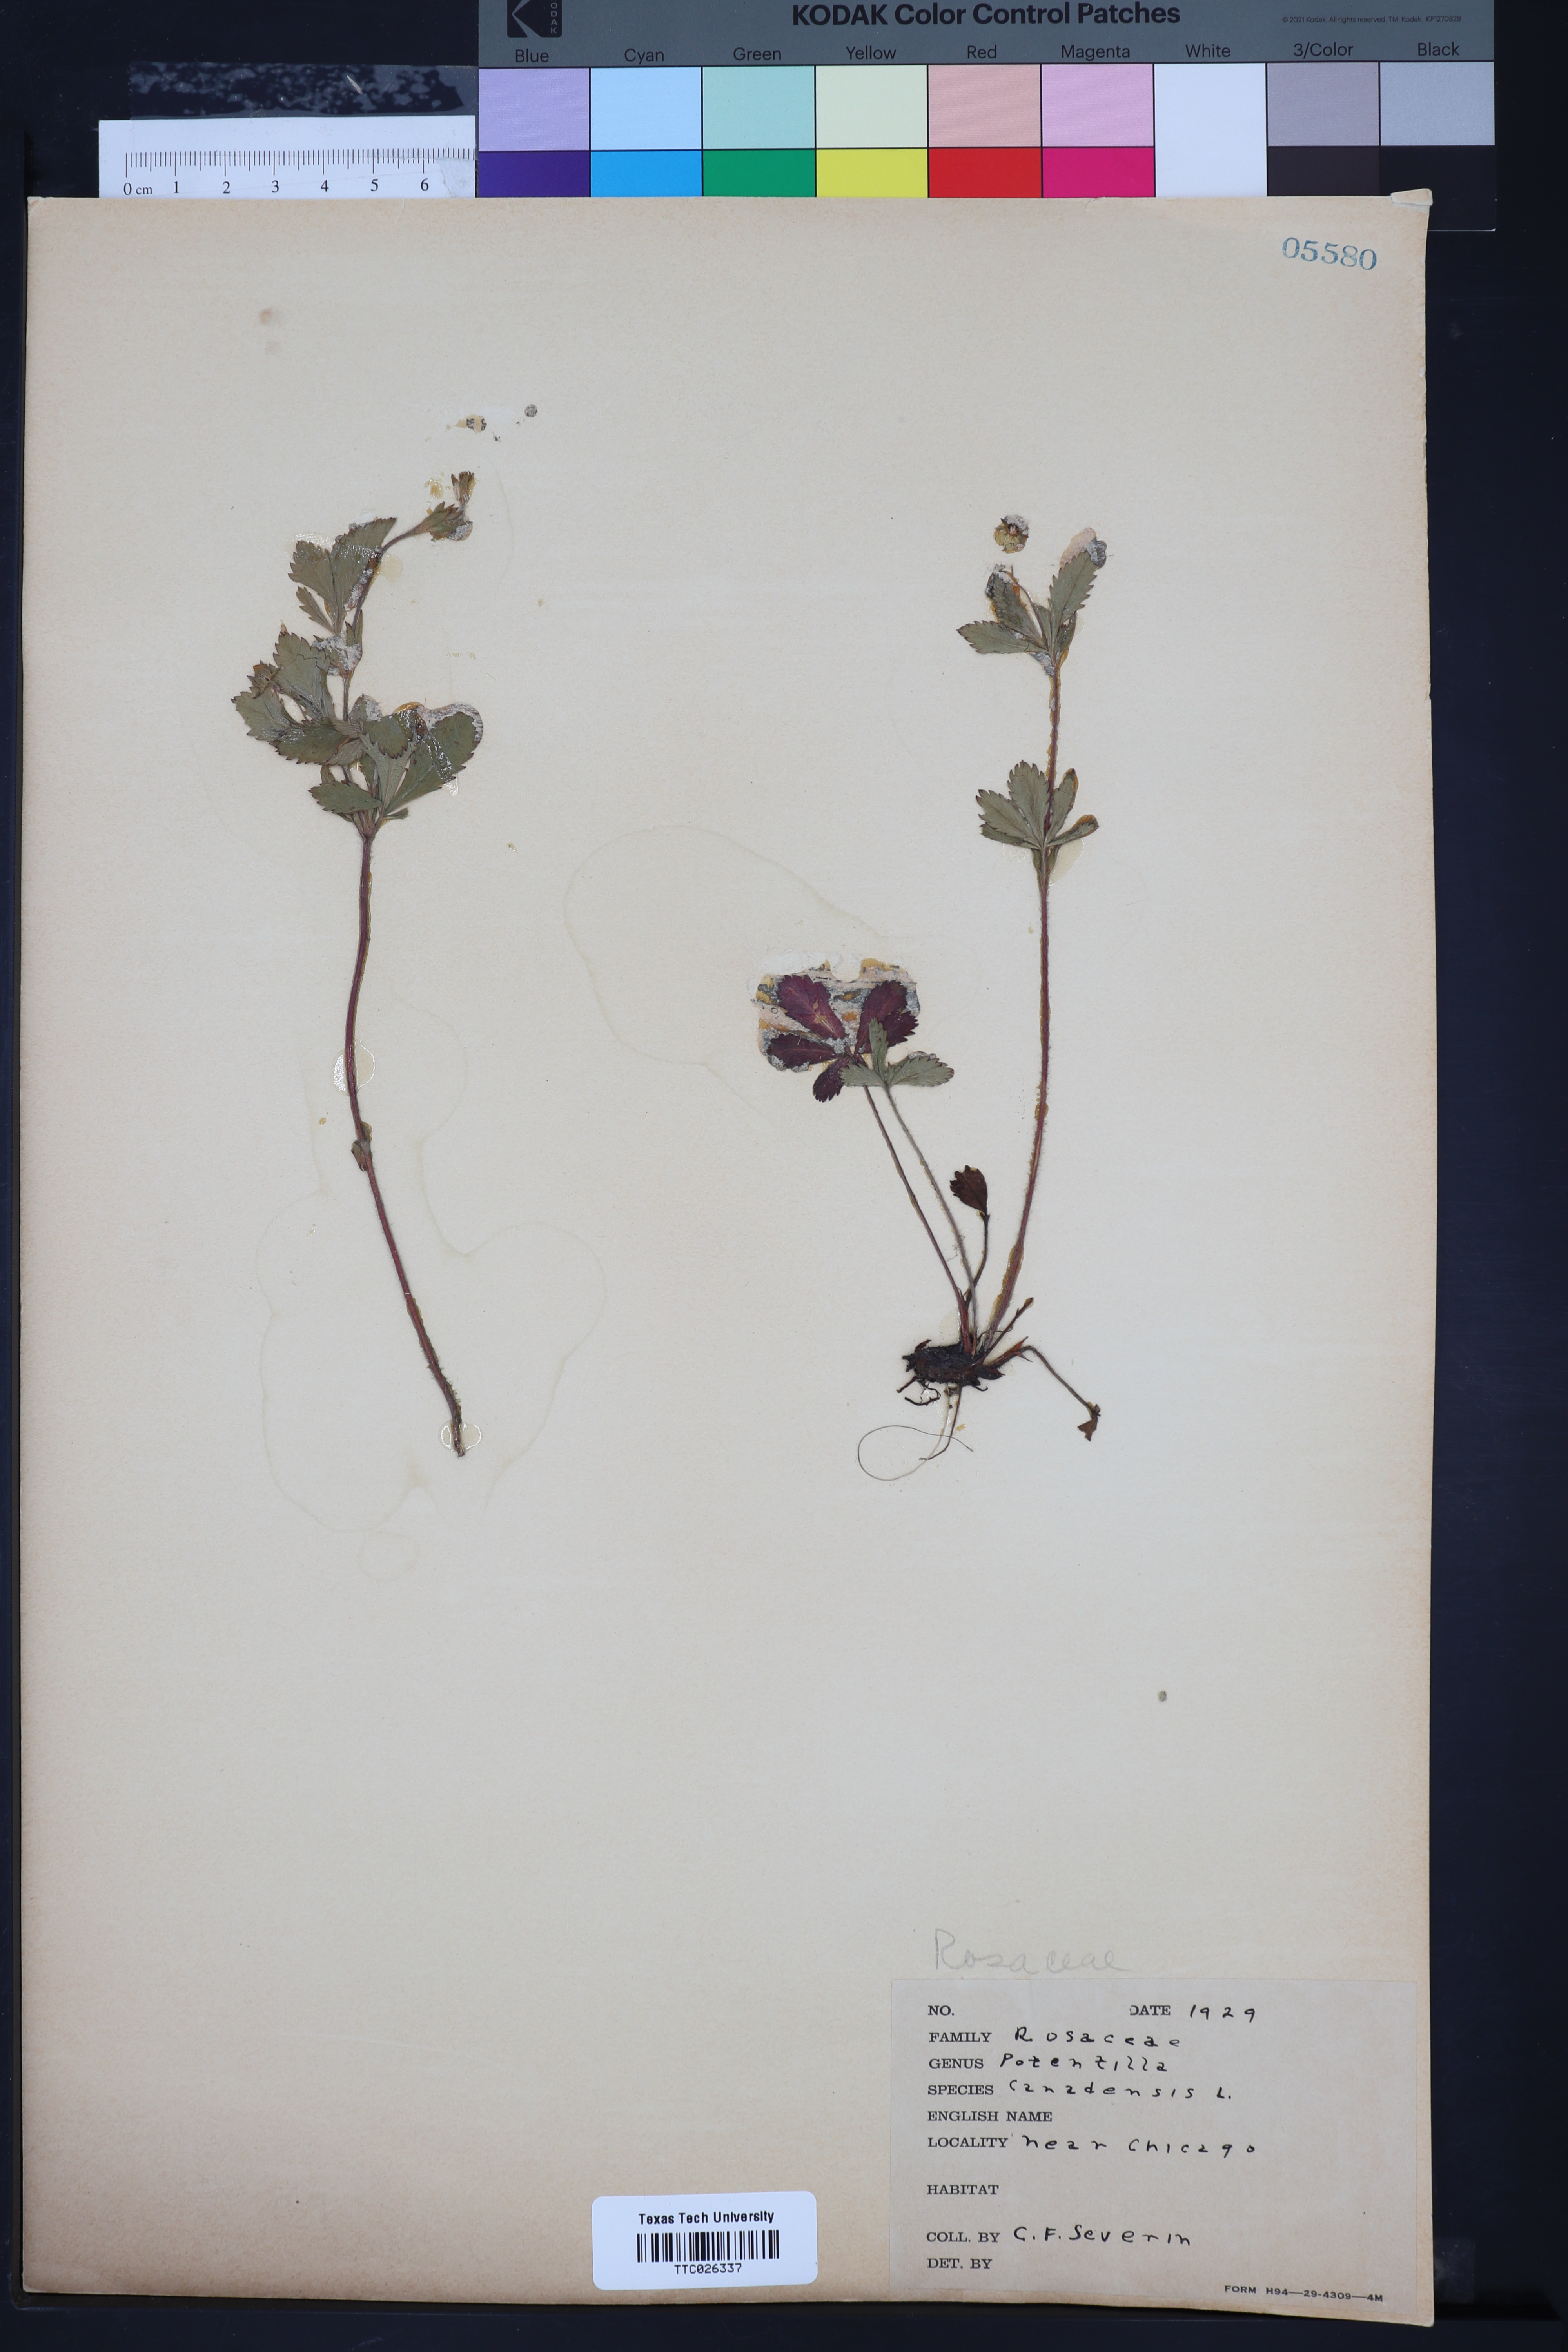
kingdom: Plantae
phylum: Tracheophyta
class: Magnoliopsida
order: Rosales
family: Rosaceae
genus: Potentilla
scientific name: Potentilla canadensis
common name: Canada cinquefoil
